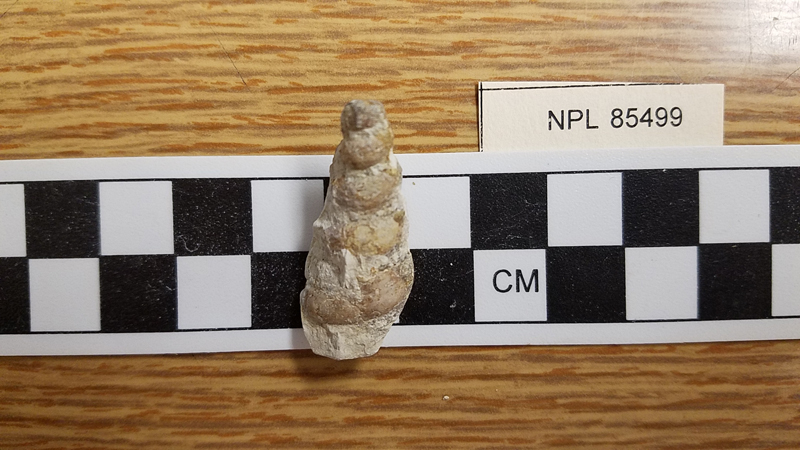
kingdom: Animalia
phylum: Mollusca
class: Gastropoda
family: Turritellidae
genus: Turritella
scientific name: Turritella seriatimgranulata
